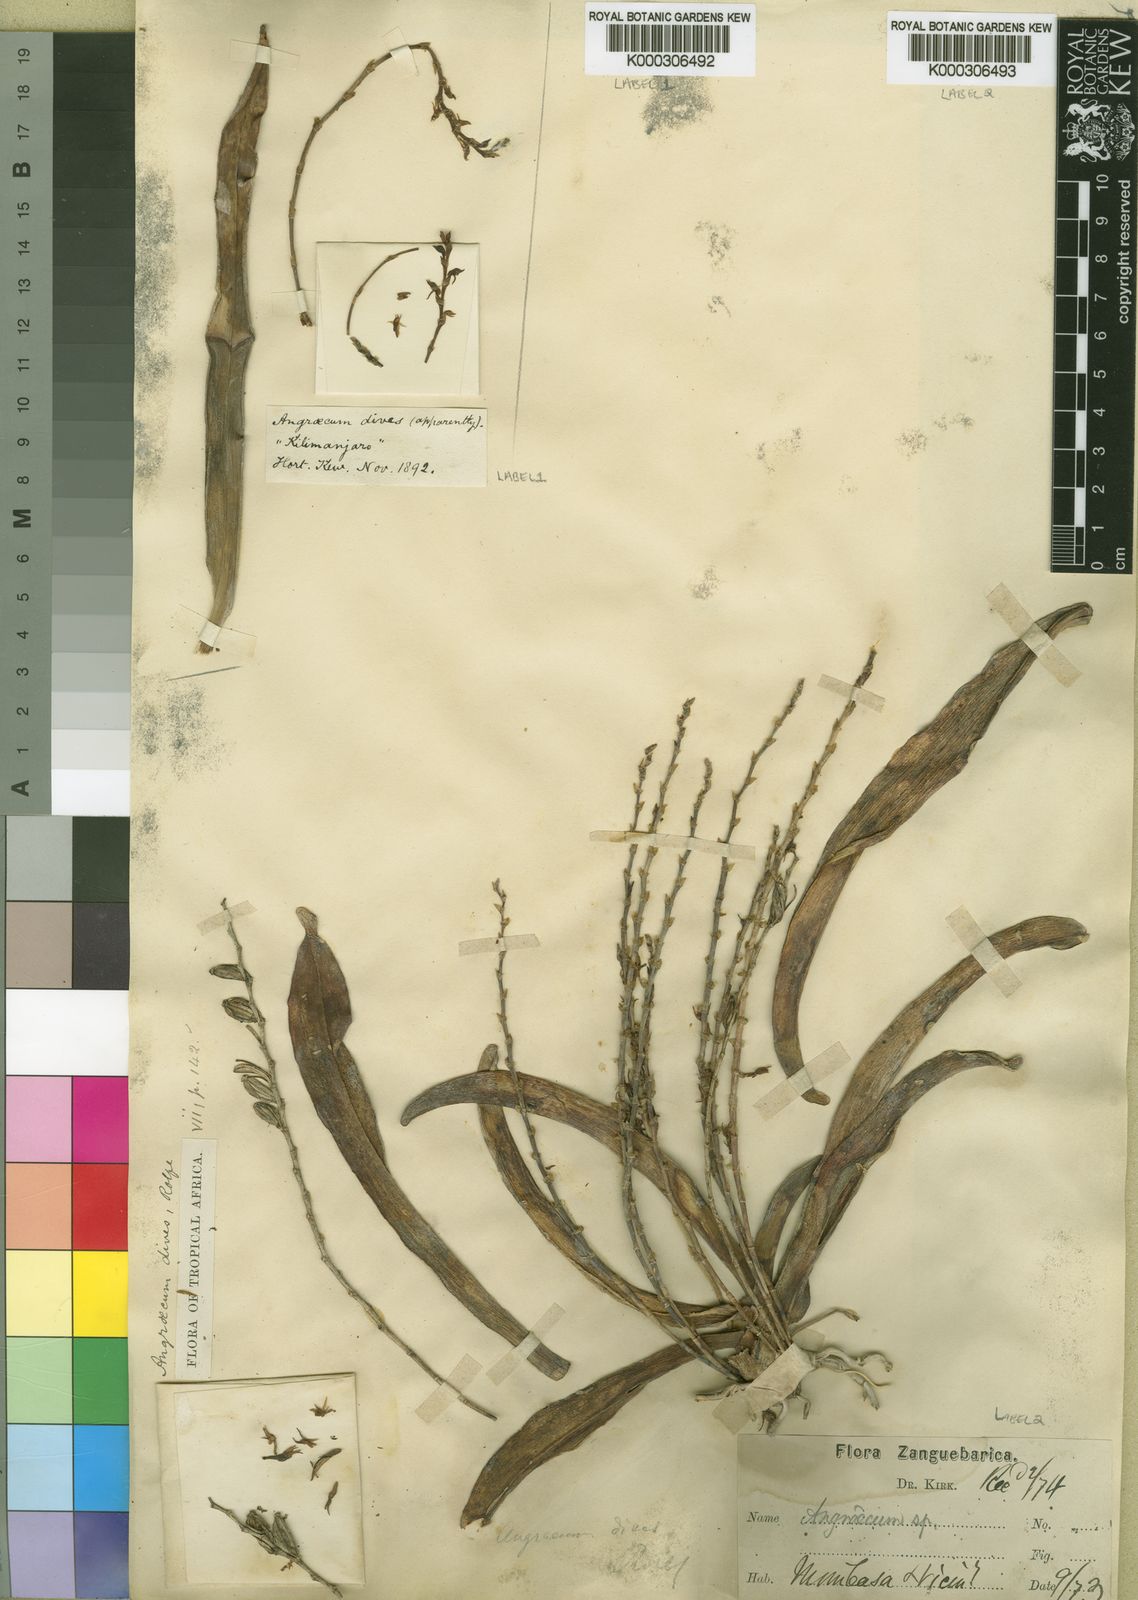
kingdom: Plantae
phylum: Tracheophyta
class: Liliopsida
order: Asparagales
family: Orchidaceae
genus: Angraecum
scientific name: Angraecum dives
